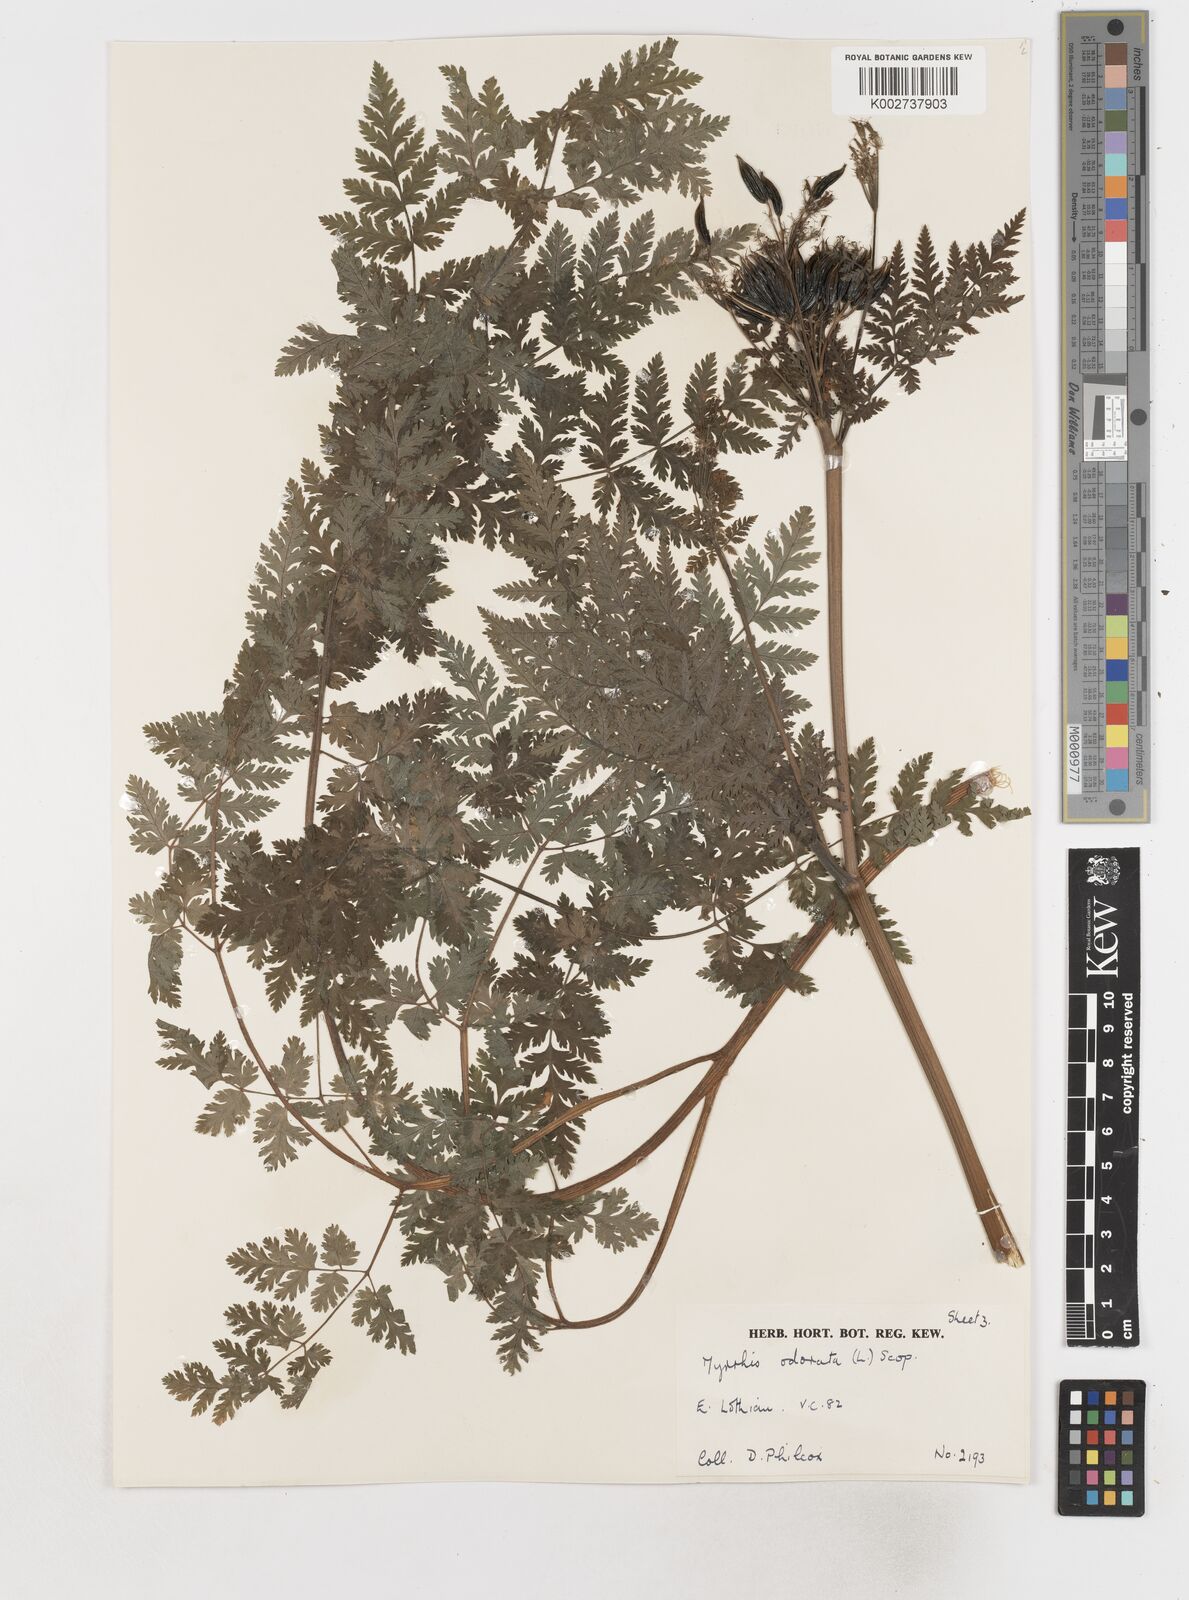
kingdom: Plantae
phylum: Tracheophyta
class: Magnoliopsida
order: Apiales
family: Apiaceae
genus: Myrrhis
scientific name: Myrrhis odorata
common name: Sweet cicely
